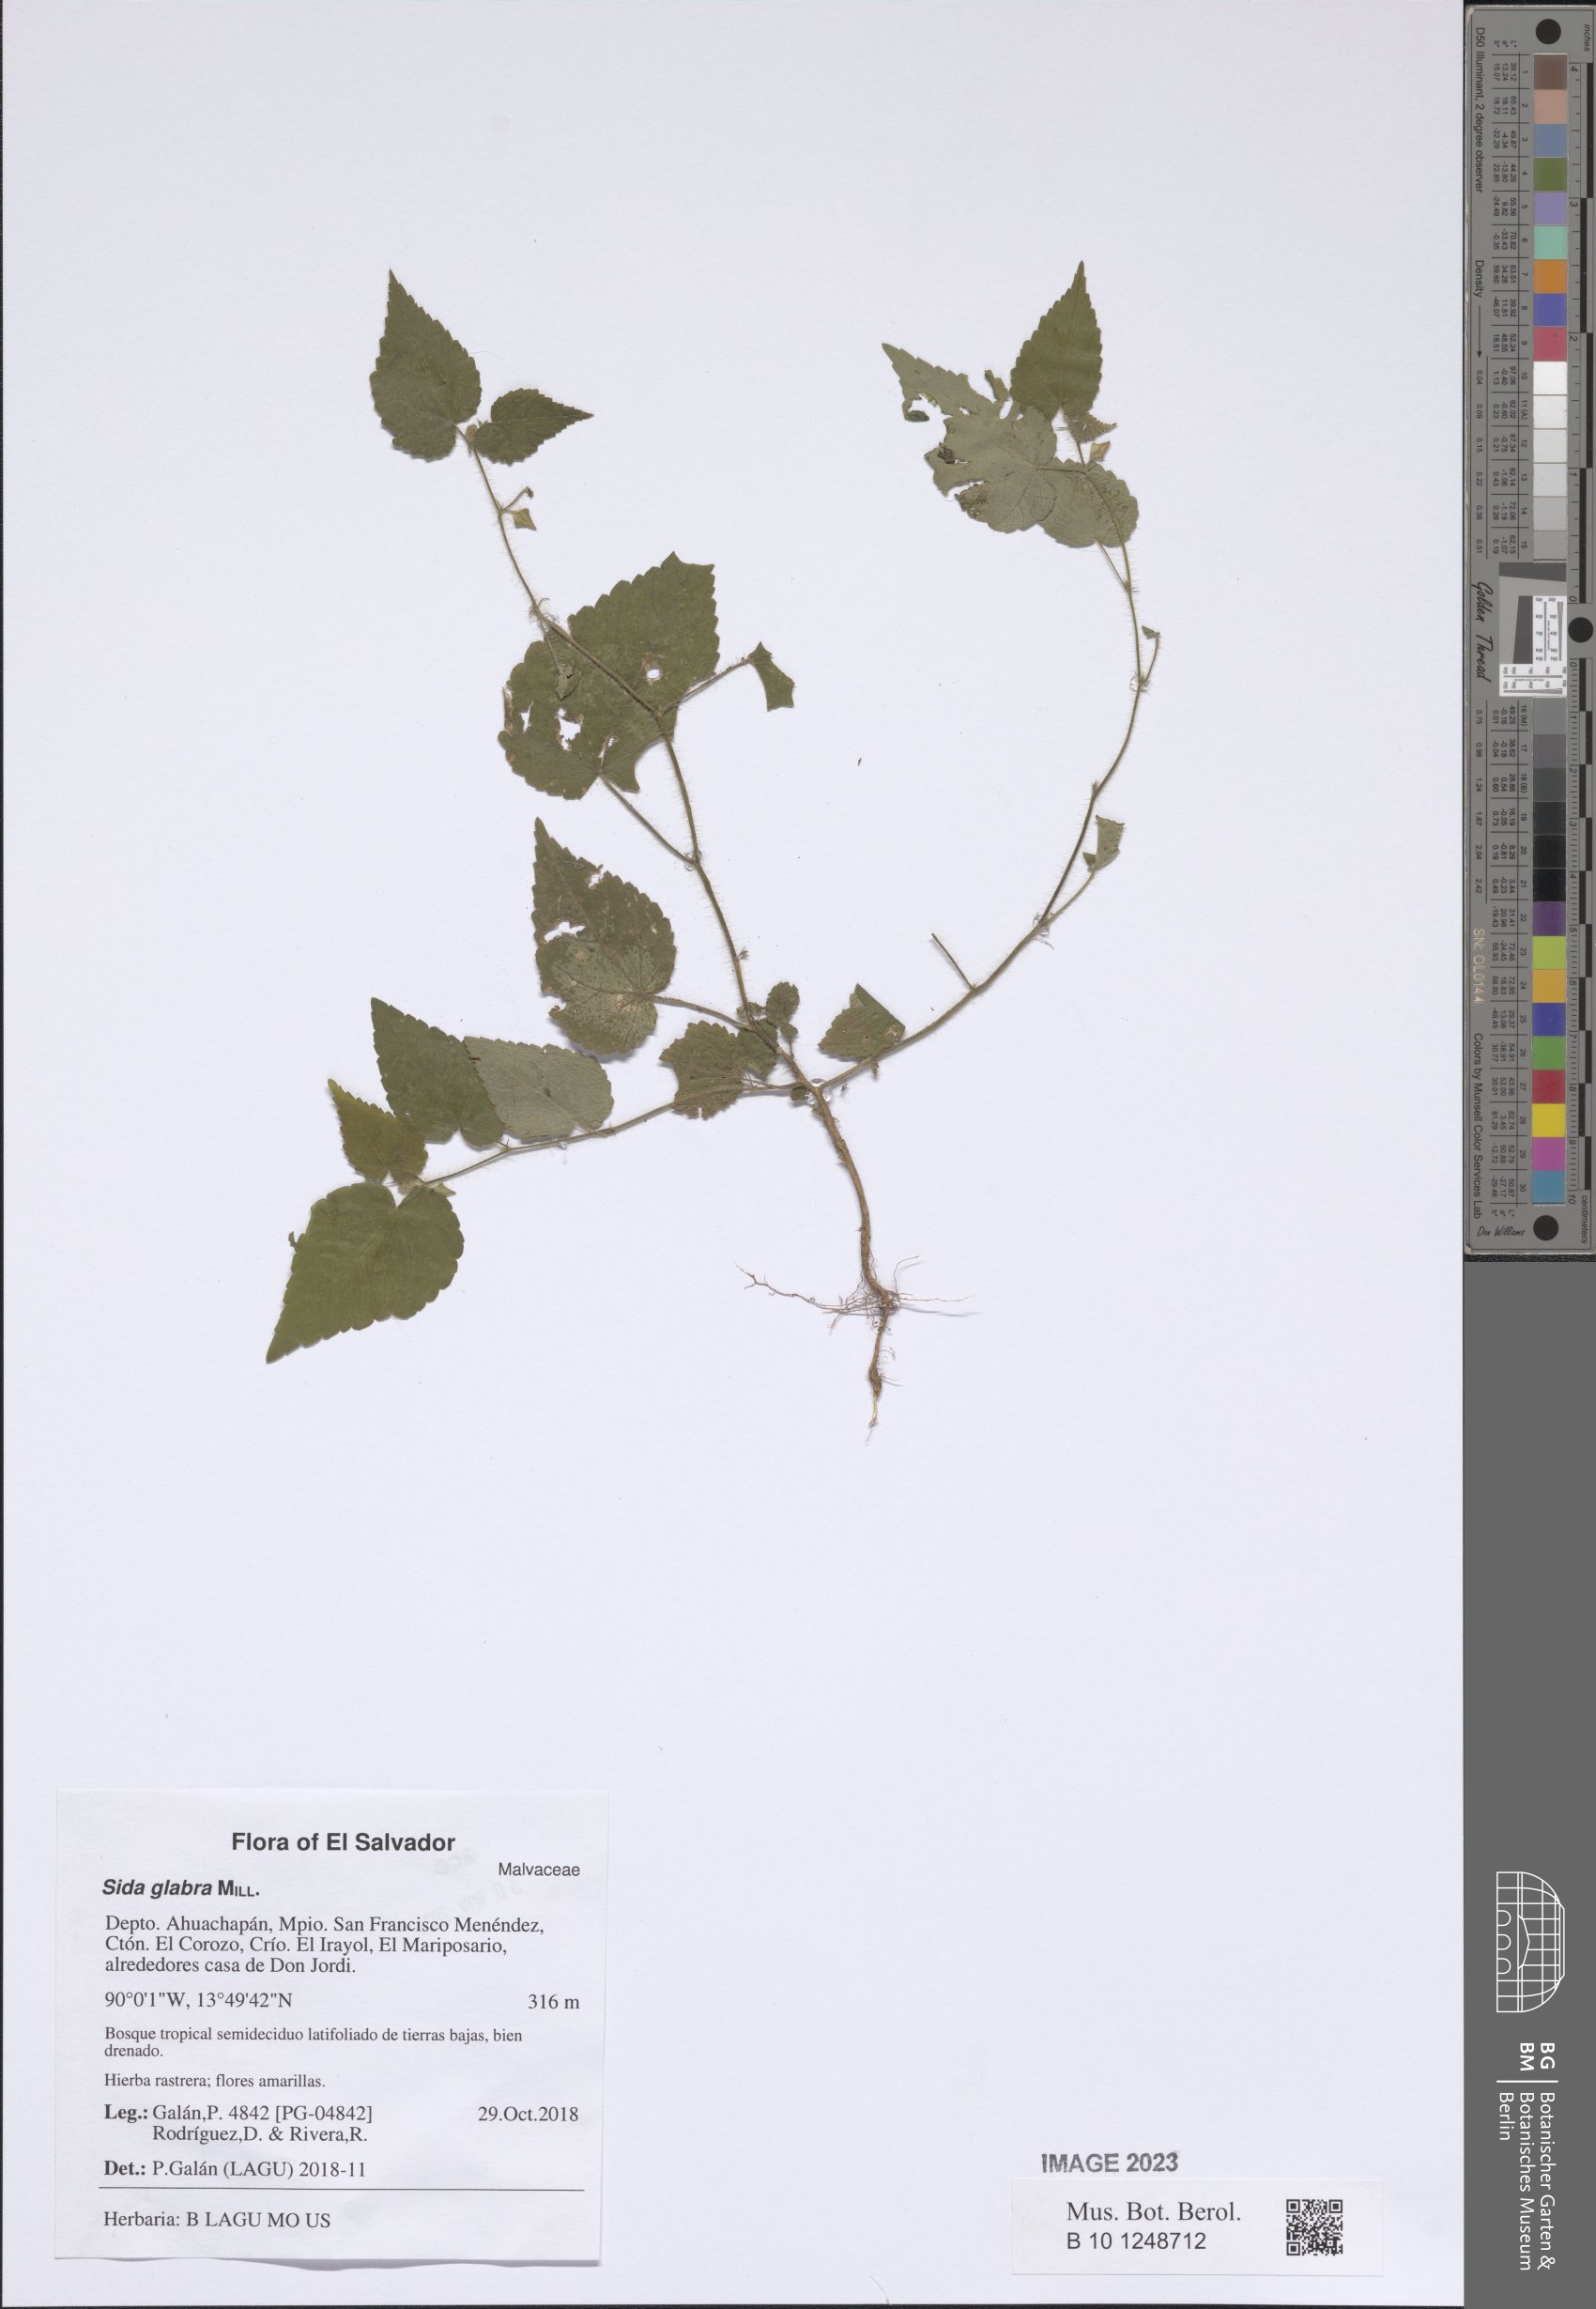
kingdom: Plantae
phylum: Tracheophyta
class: Magnoliopsida
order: Malvales
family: Malvaceae
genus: Sida
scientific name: Sida glabra
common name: Smooth fanpetals
